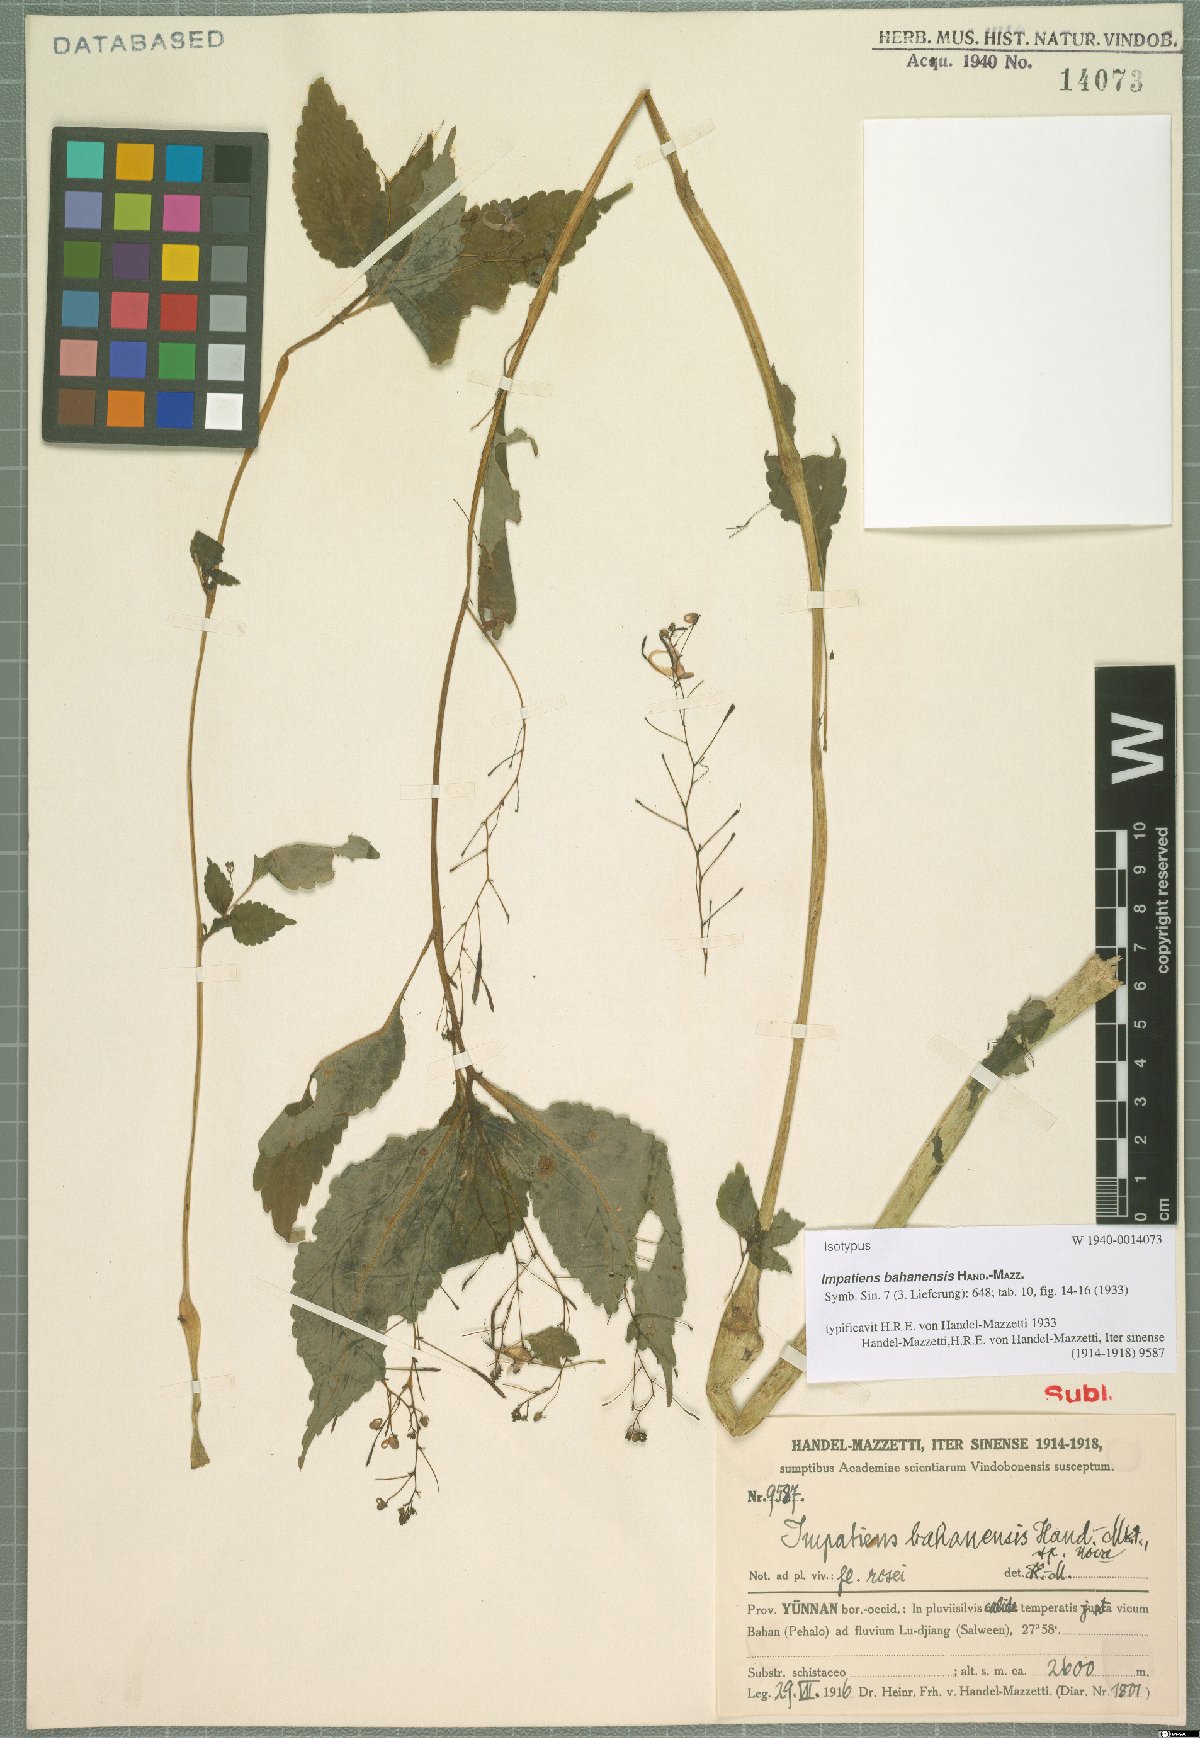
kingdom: Plantae
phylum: Tracheophyta
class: Magnoliopsida
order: Ericales
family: Balsaminaceae
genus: Impatiens
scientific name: Impatiens bahanensis
